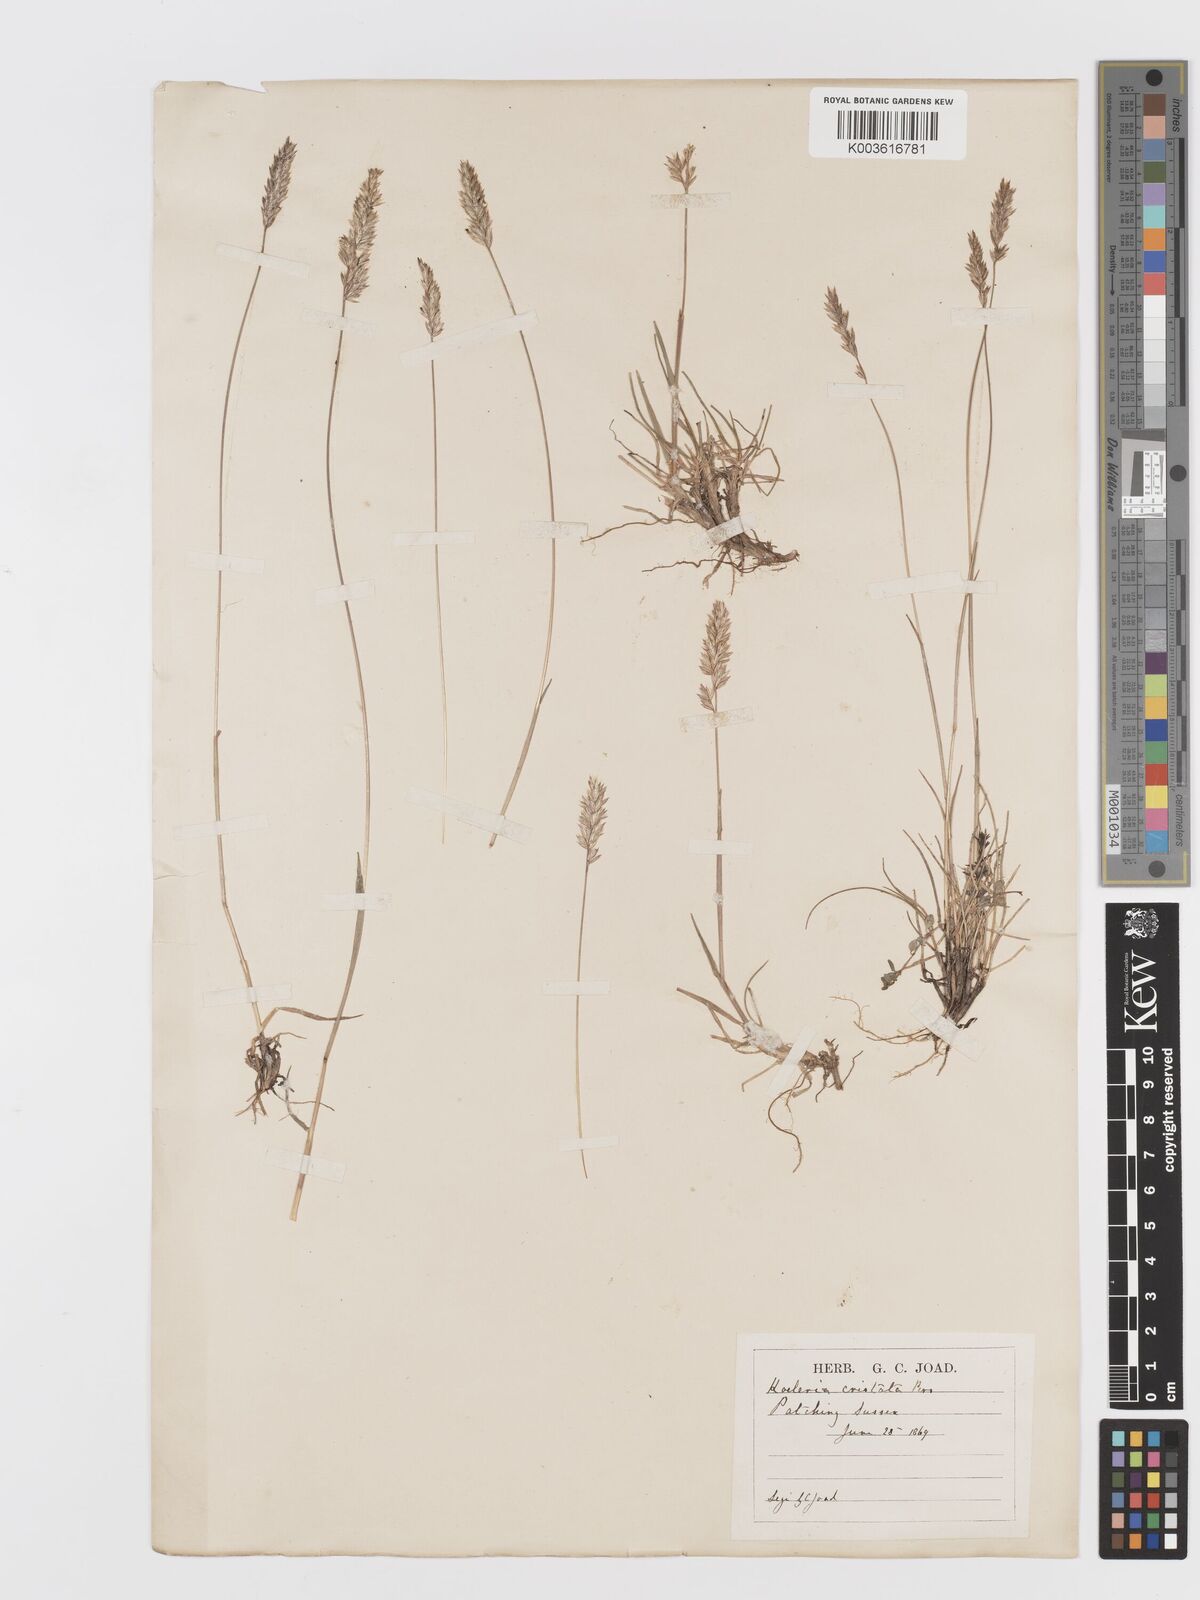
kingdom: Plantae
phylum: Tracheophyta
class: Liliopsida
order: Poales
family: Poaceae
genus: Koeleria
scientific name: Koeleria macrantha
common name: Crested hair-grass
